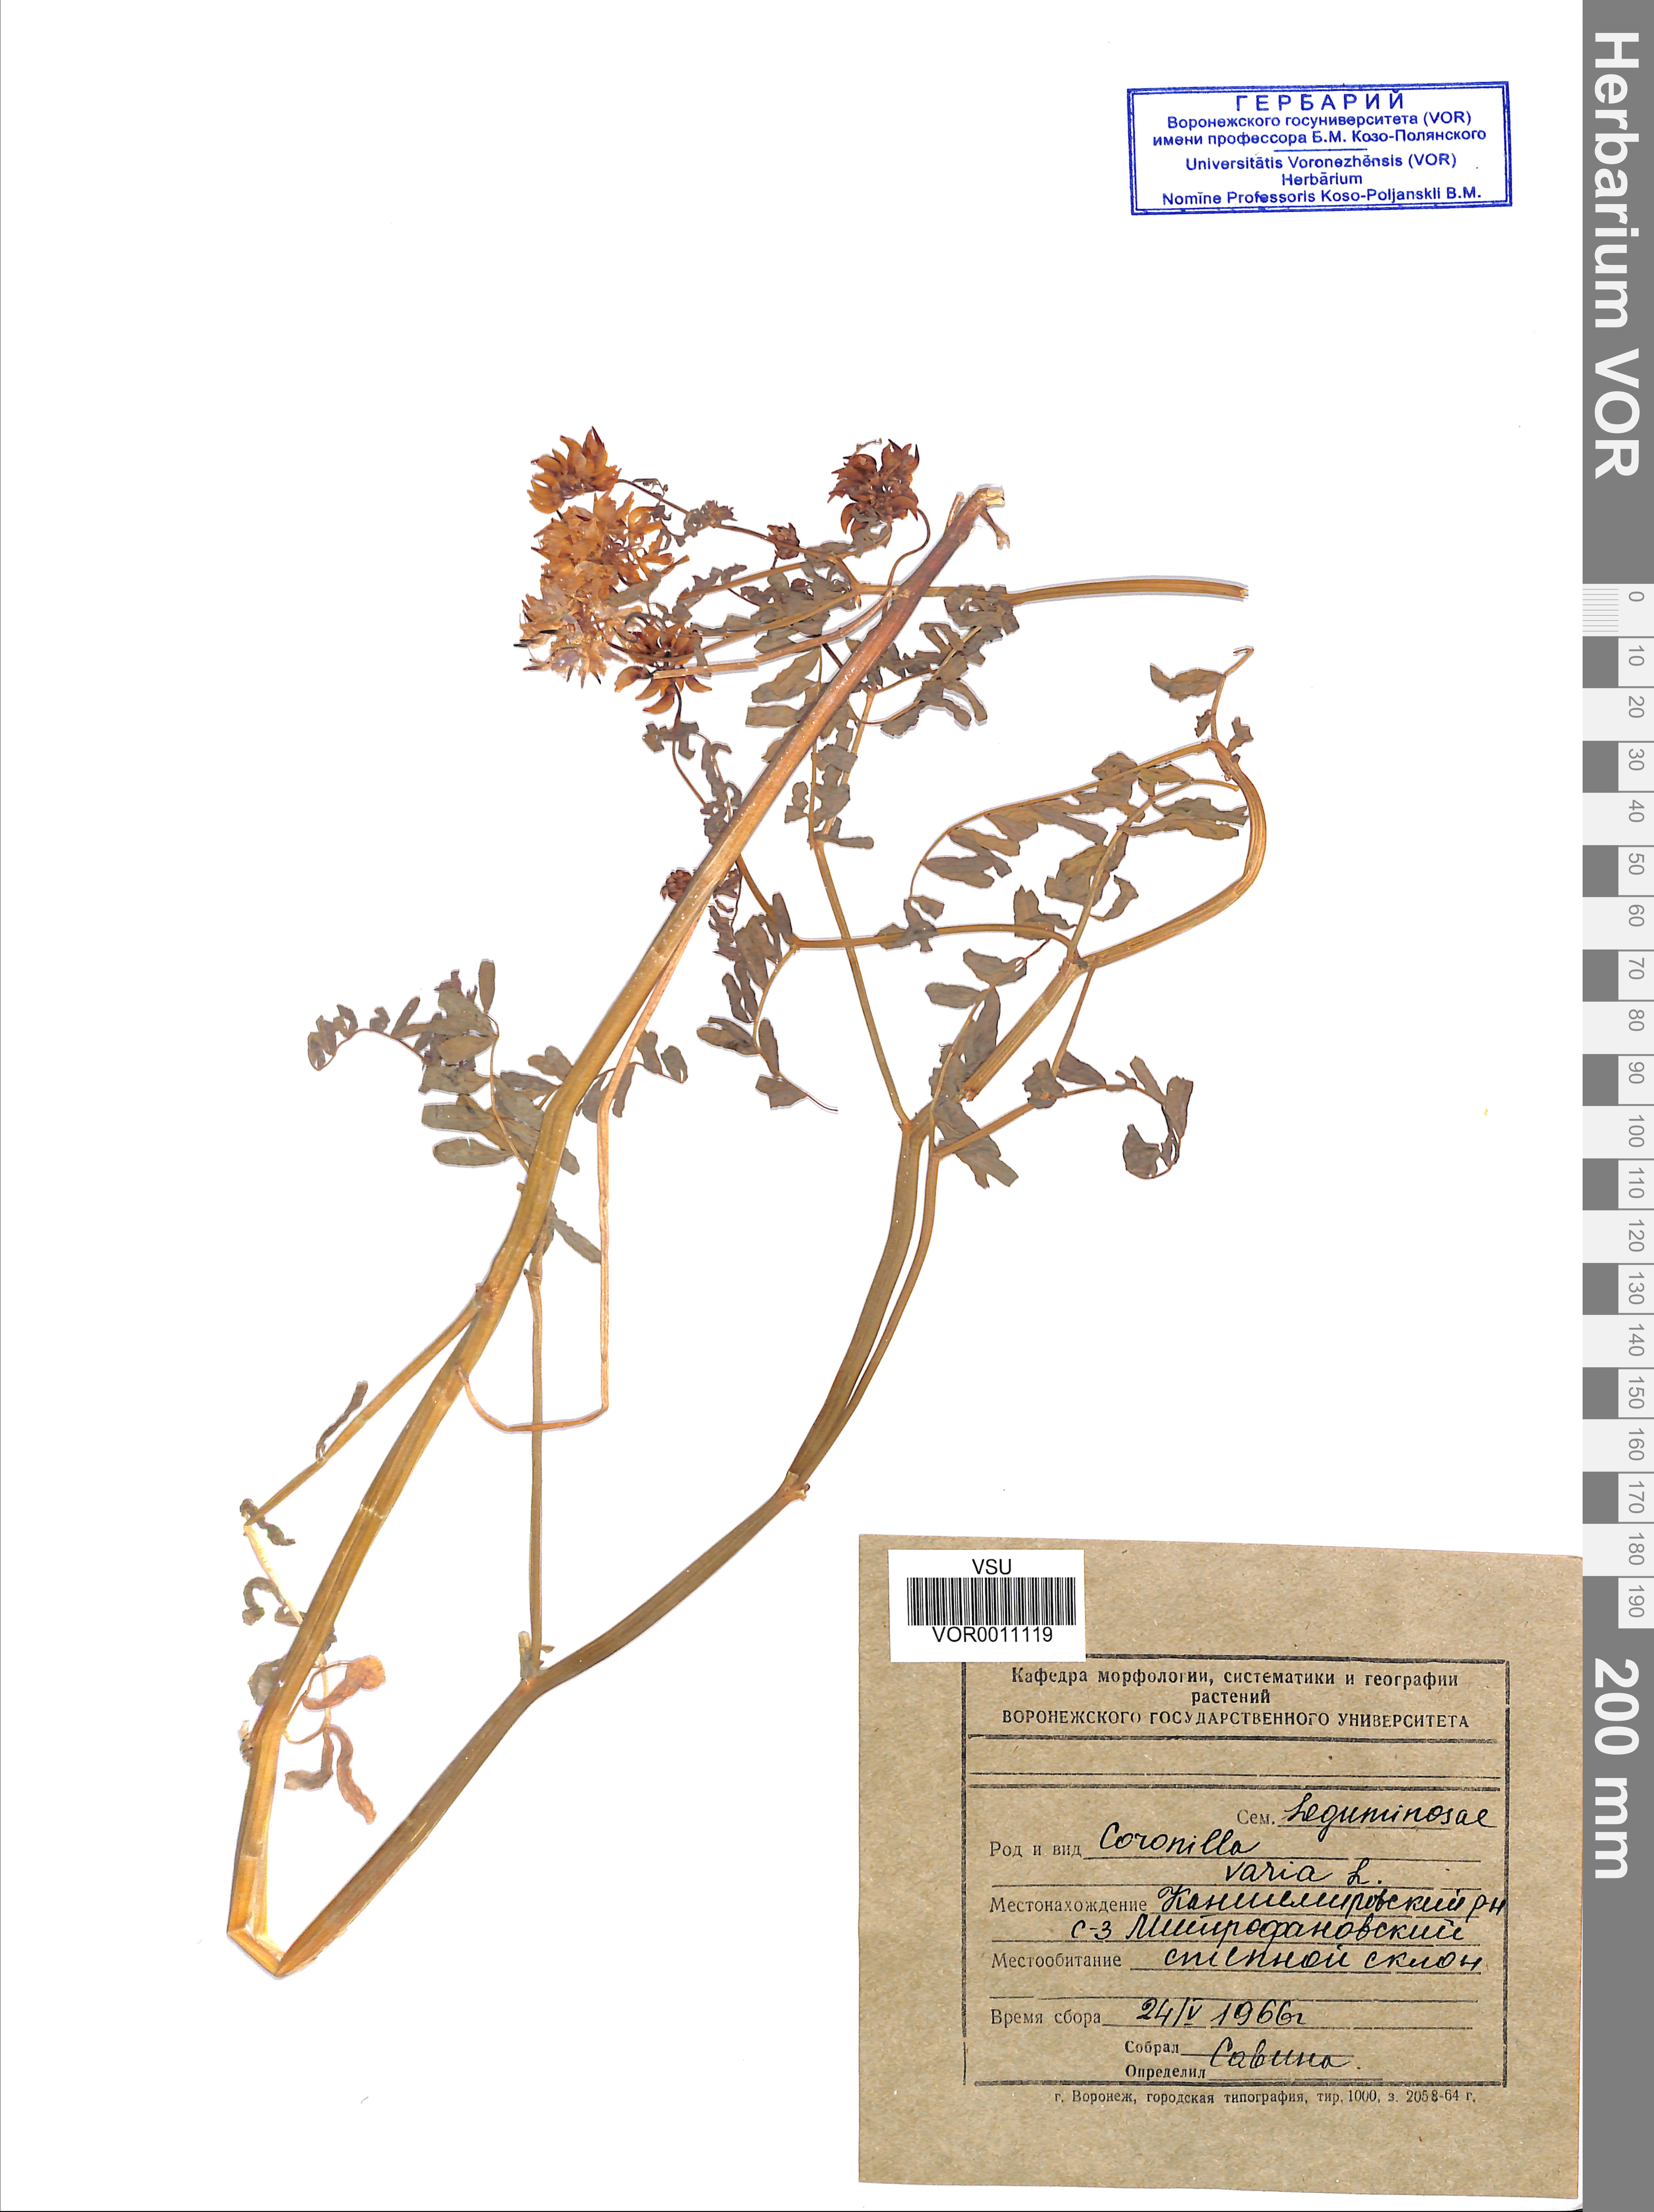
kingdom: Plantae
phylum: Tracheophyta
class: Magnoliopsida
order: Fabales
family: Fabaceae
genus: Coronilla
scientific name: Coronilla varia
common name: Crownvetch
